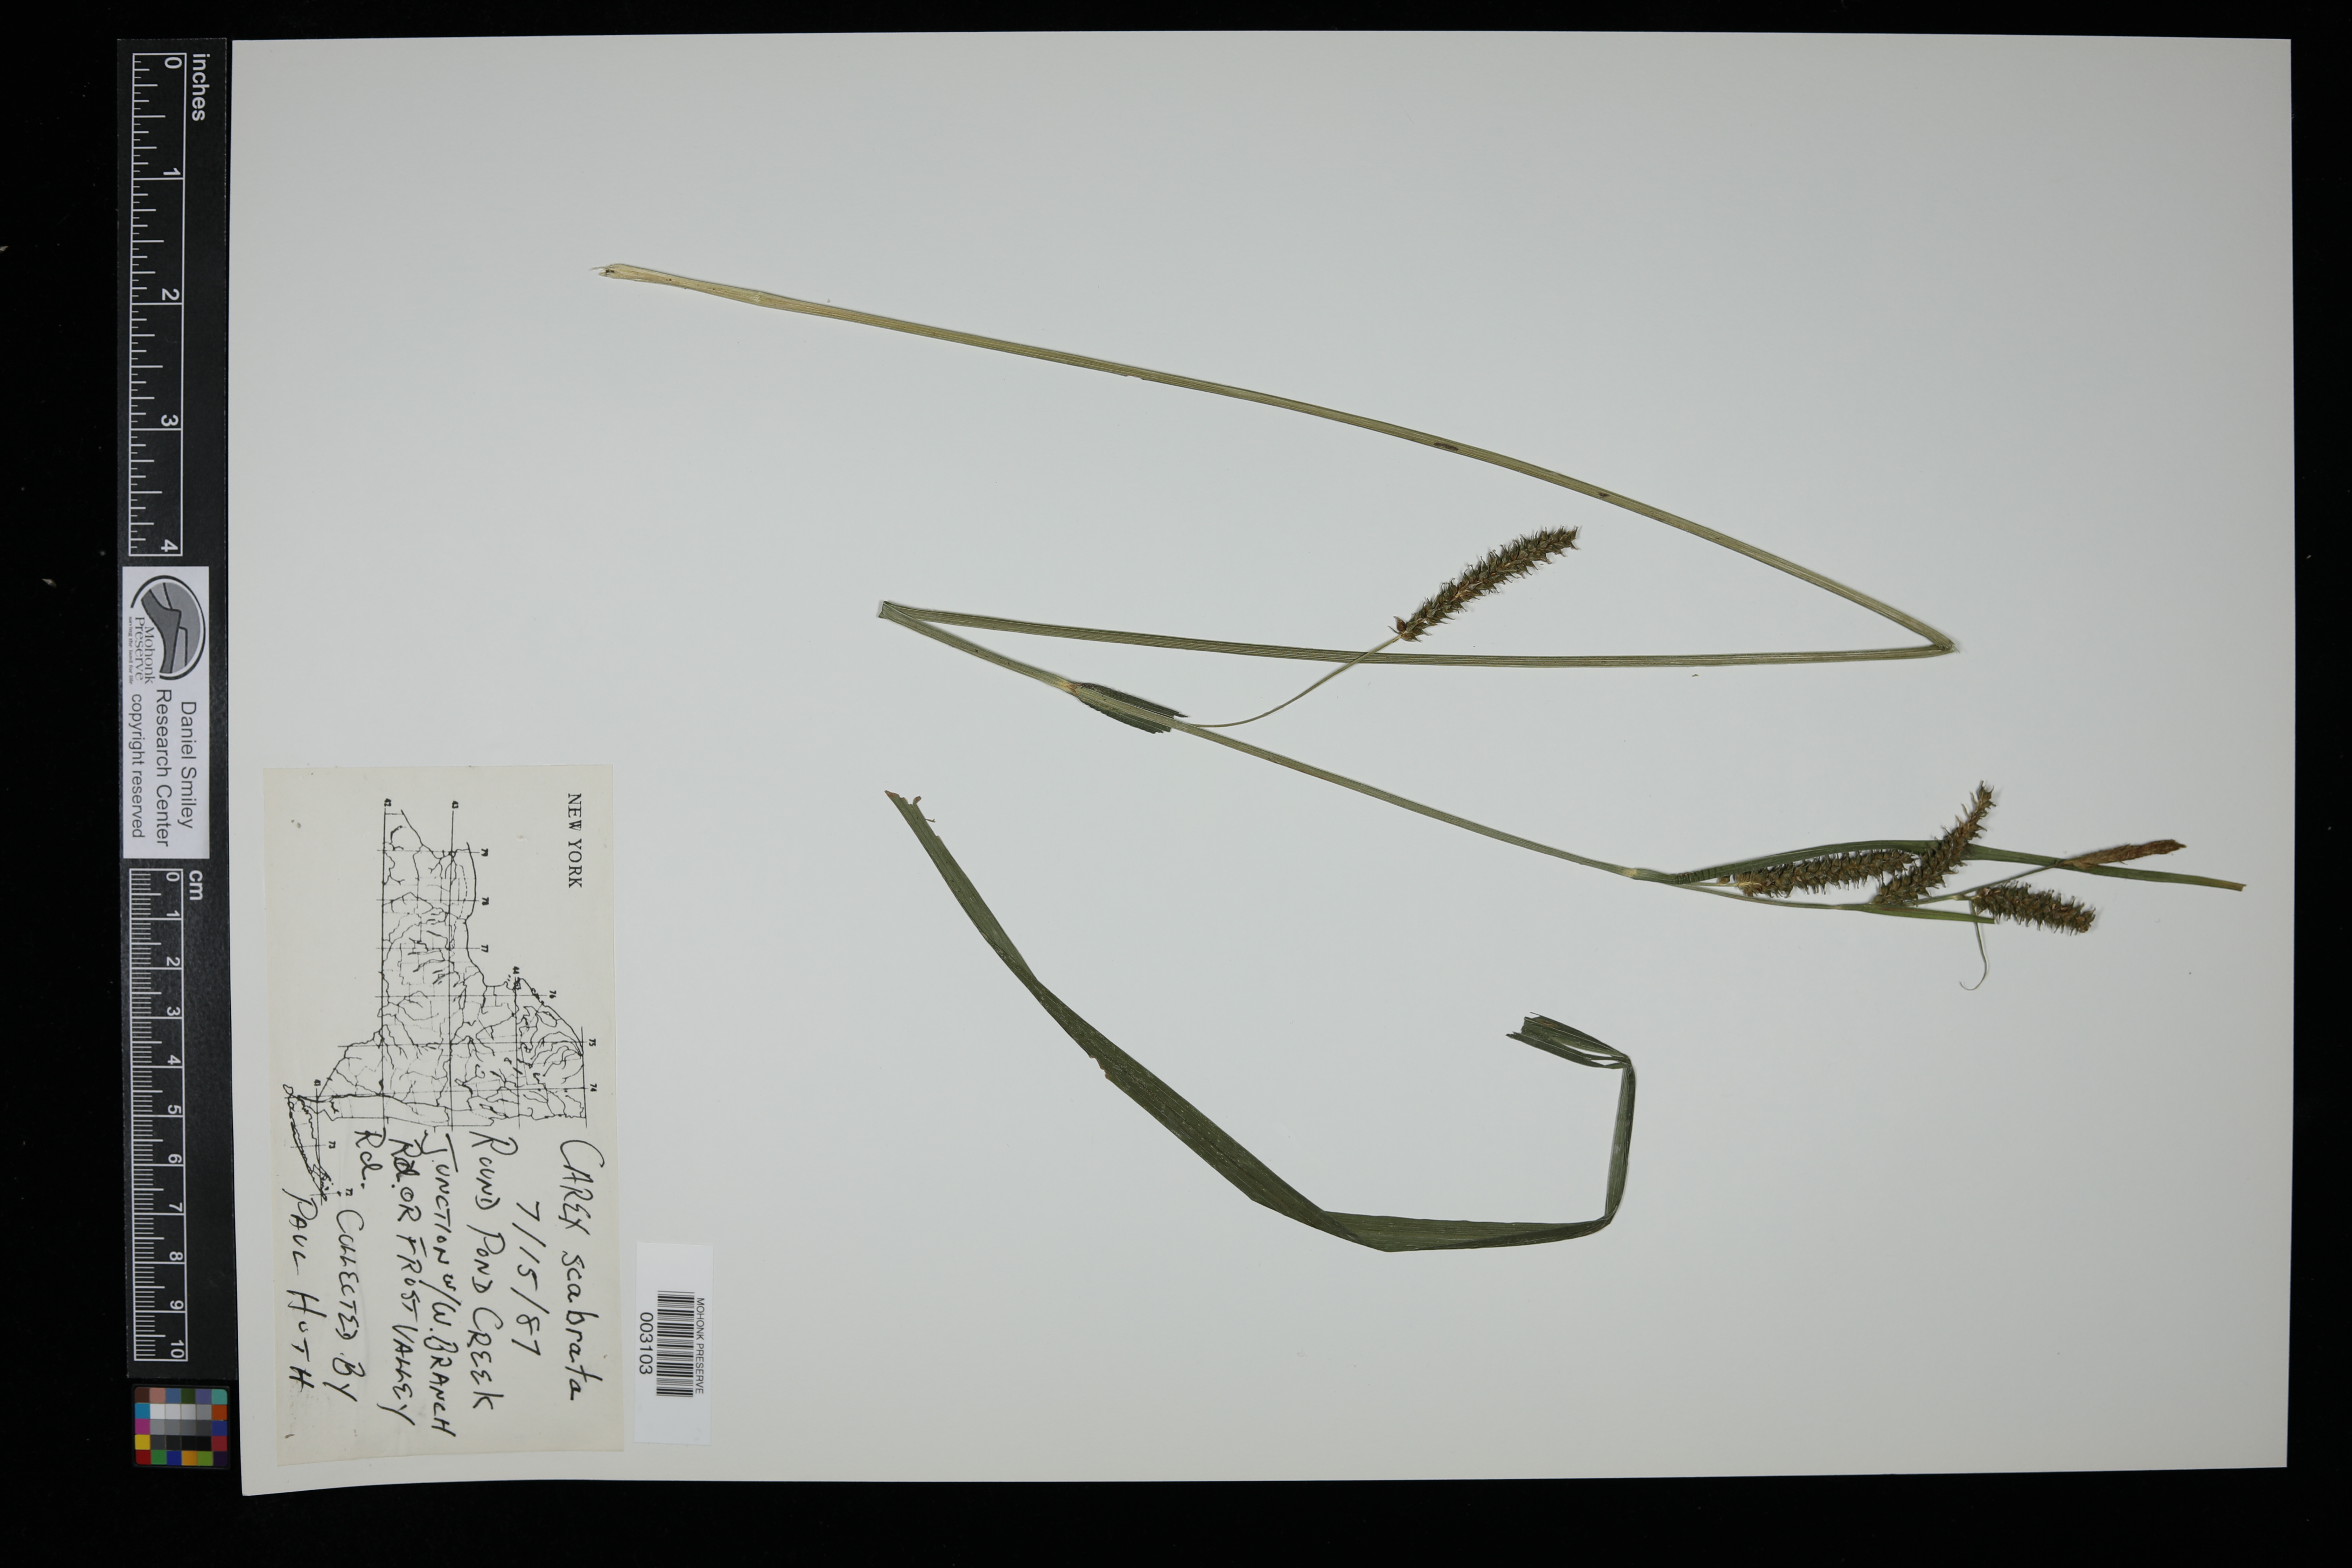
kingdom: Plantae
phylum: Tracheophyta
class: Liliopsida
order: Poales
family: Cyperaceae
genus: Carex
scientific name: Carex scabrata
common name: Eastern rough sedge
